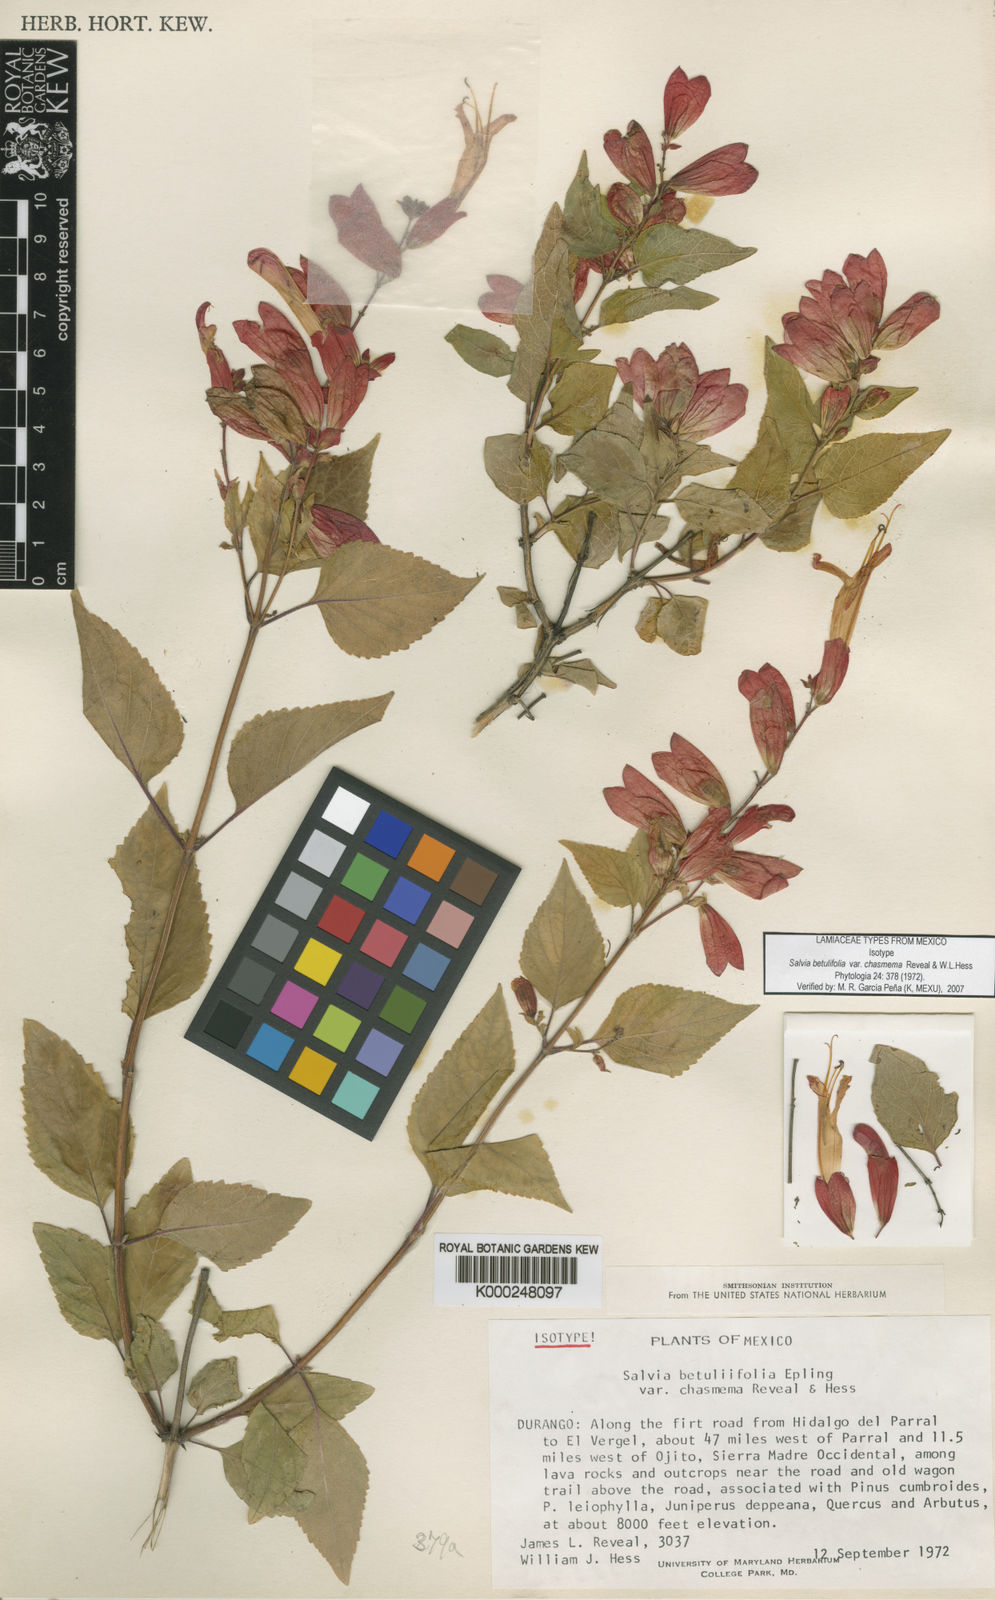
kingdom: Plantae
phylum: Tracheophyta
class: Magnoliopsida
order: Lamiales
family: Lamiaceae
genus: Salvia
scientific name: Salvia betulifolia
